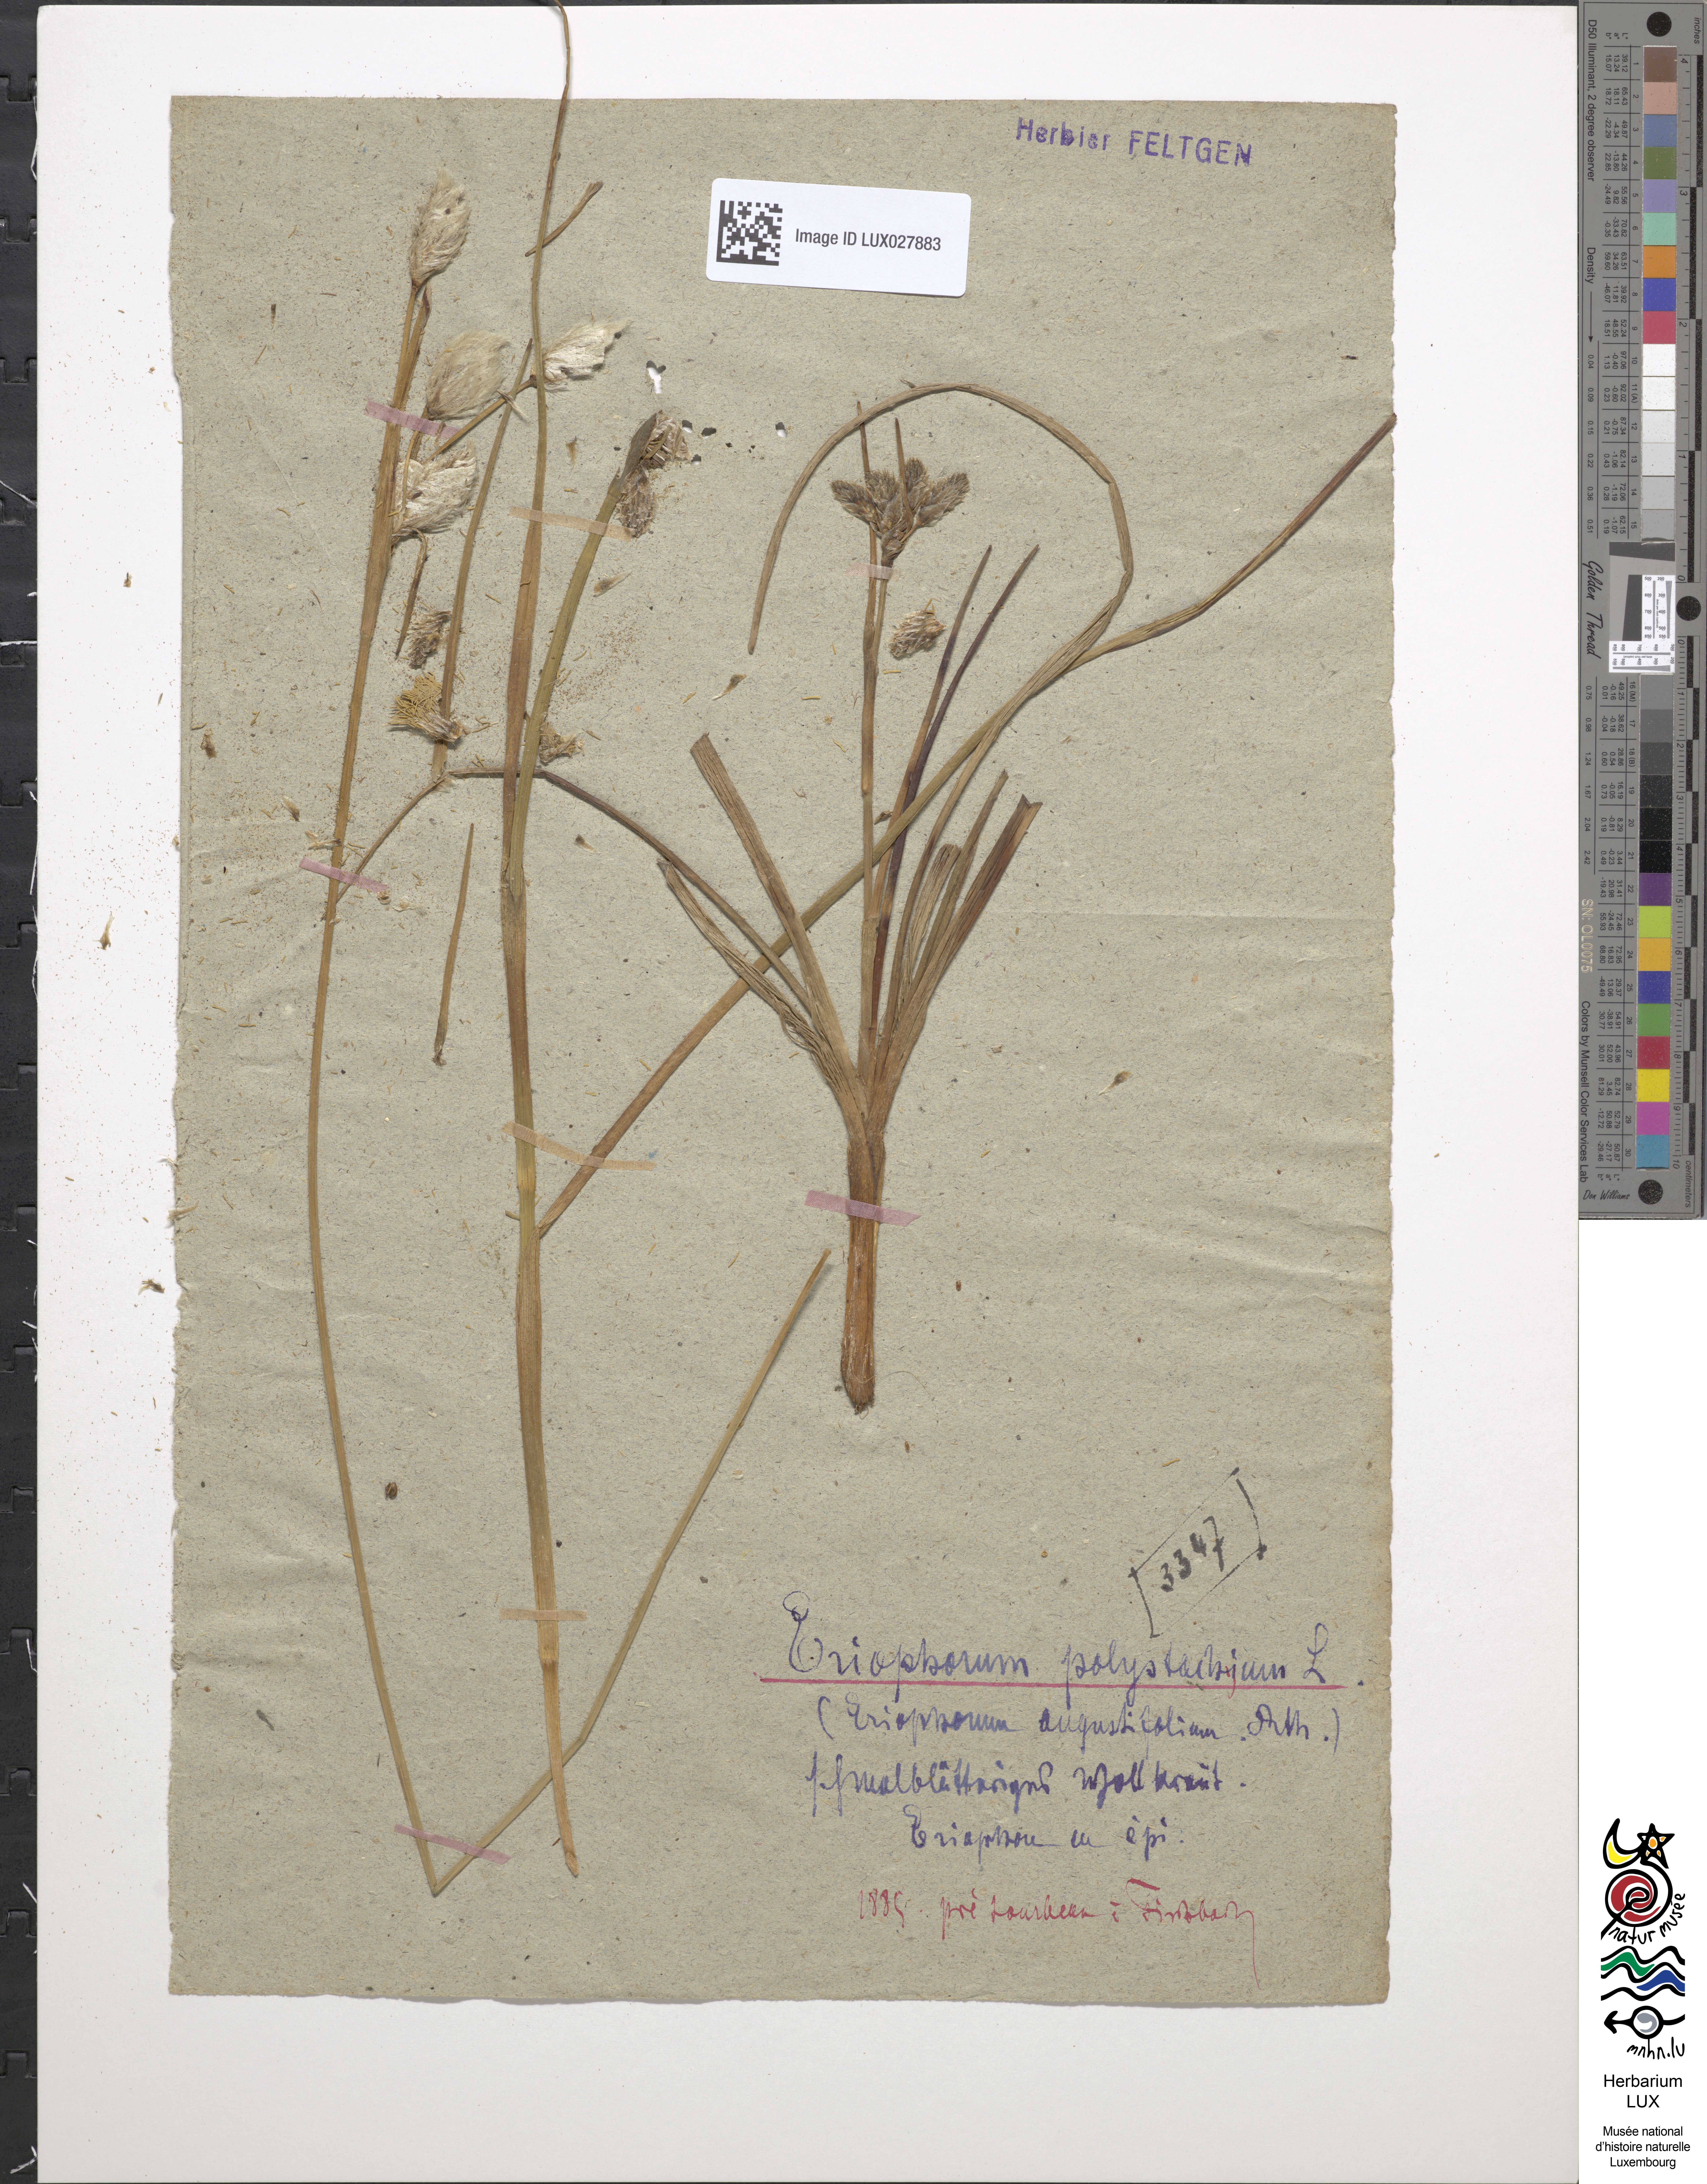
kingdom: Plantae
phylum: Tracheophyta
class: Liliopsida
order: Poales
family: Cyperaceae
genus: Eriophorum
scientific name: Eriophorum angustifolium
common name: Common cottongrass
